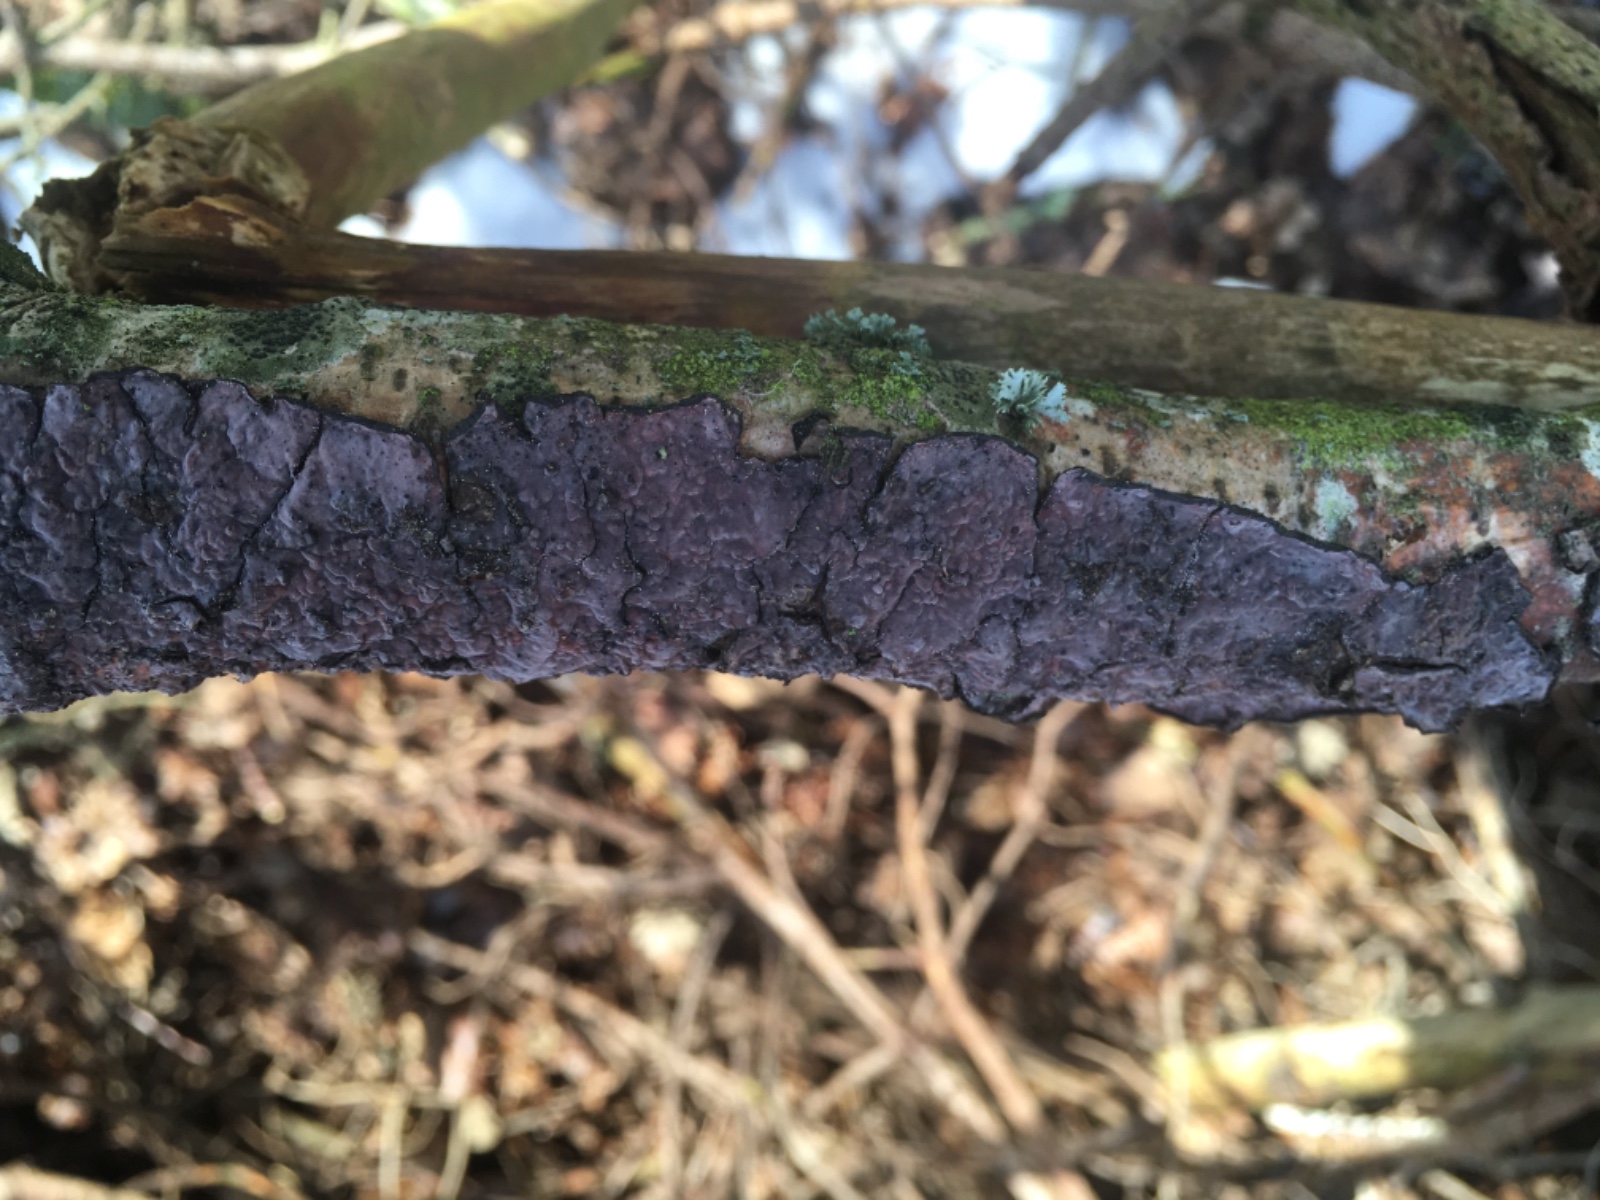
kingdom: Fungi
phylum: Basidiomycota
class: Agaricomycetes
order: Russulales
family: Peniophoraceae
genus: Peniophora
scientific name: Peniophora quercina
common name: ege-voksskind
